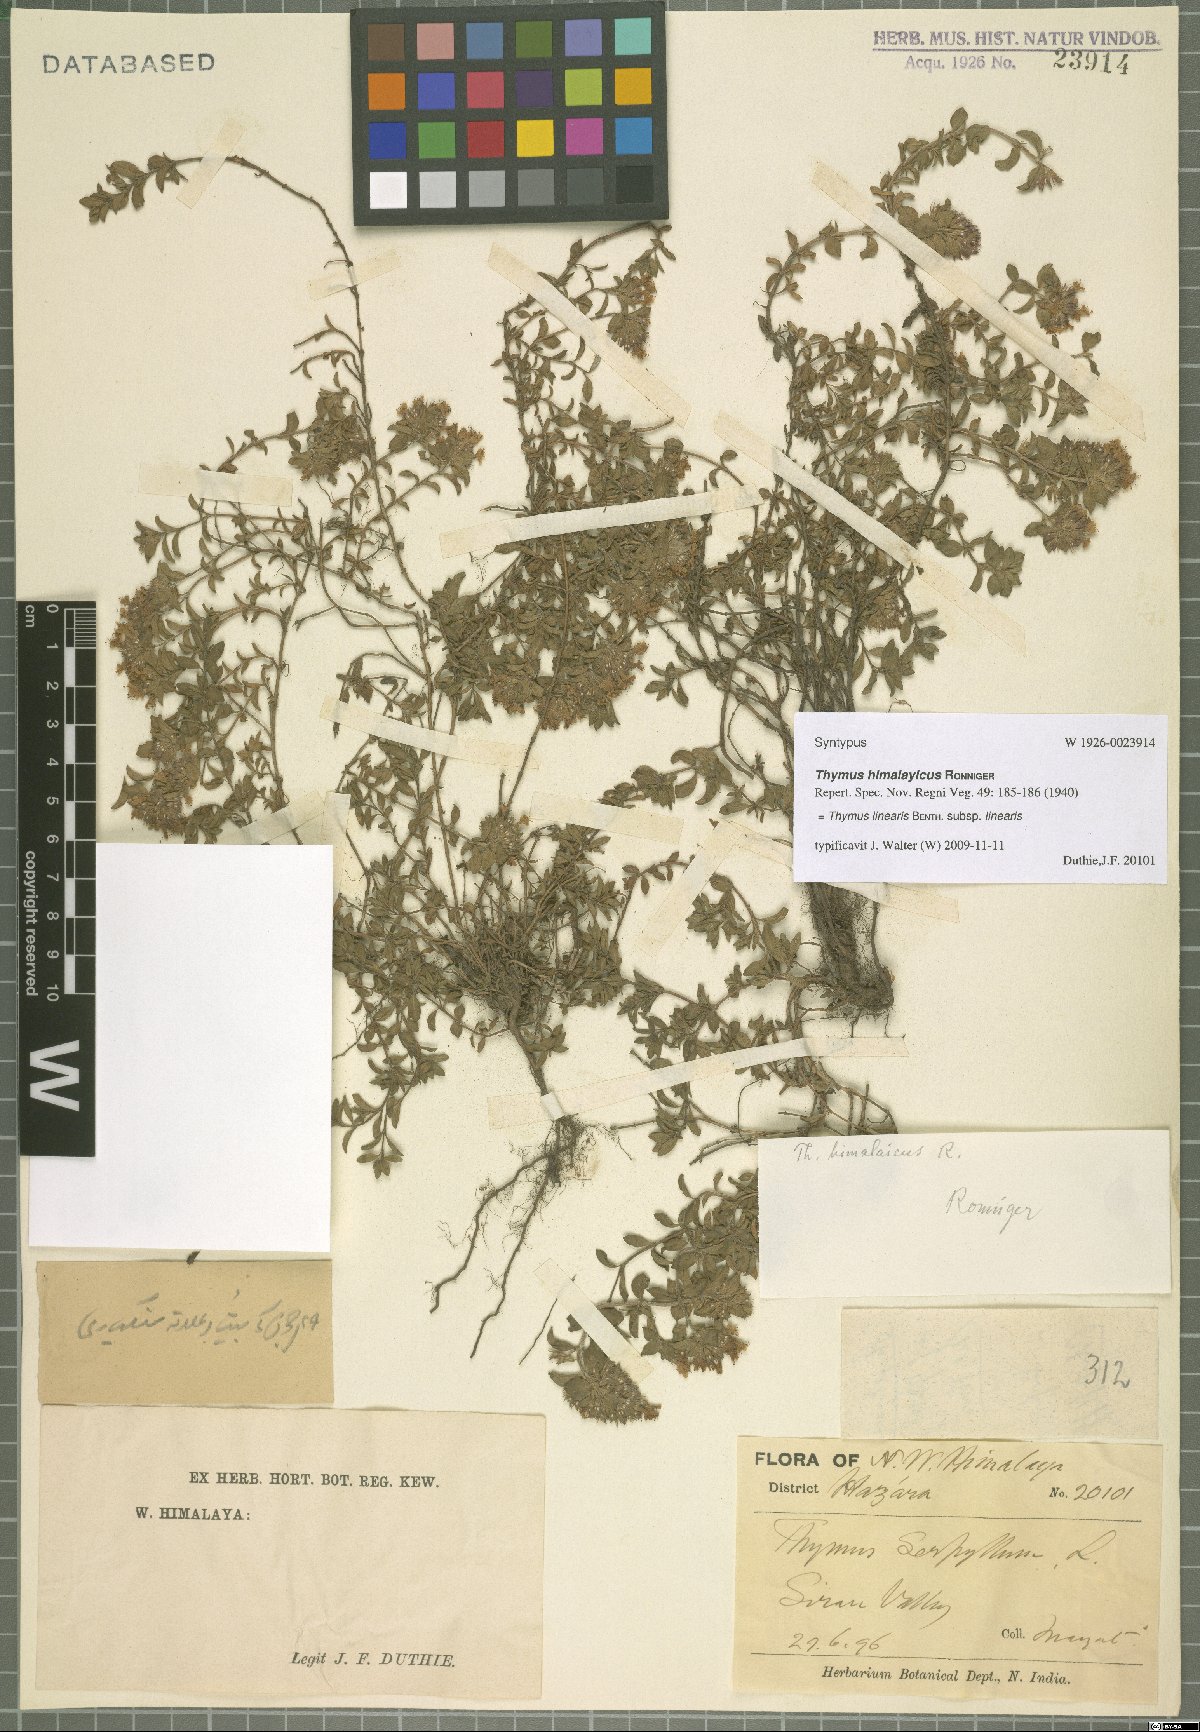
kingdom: Plantae
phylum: Tracheophyta
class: Magnoliopsida
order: Lamiales
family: Lamiaceae
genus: Thymus
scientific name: Thymus linearis
